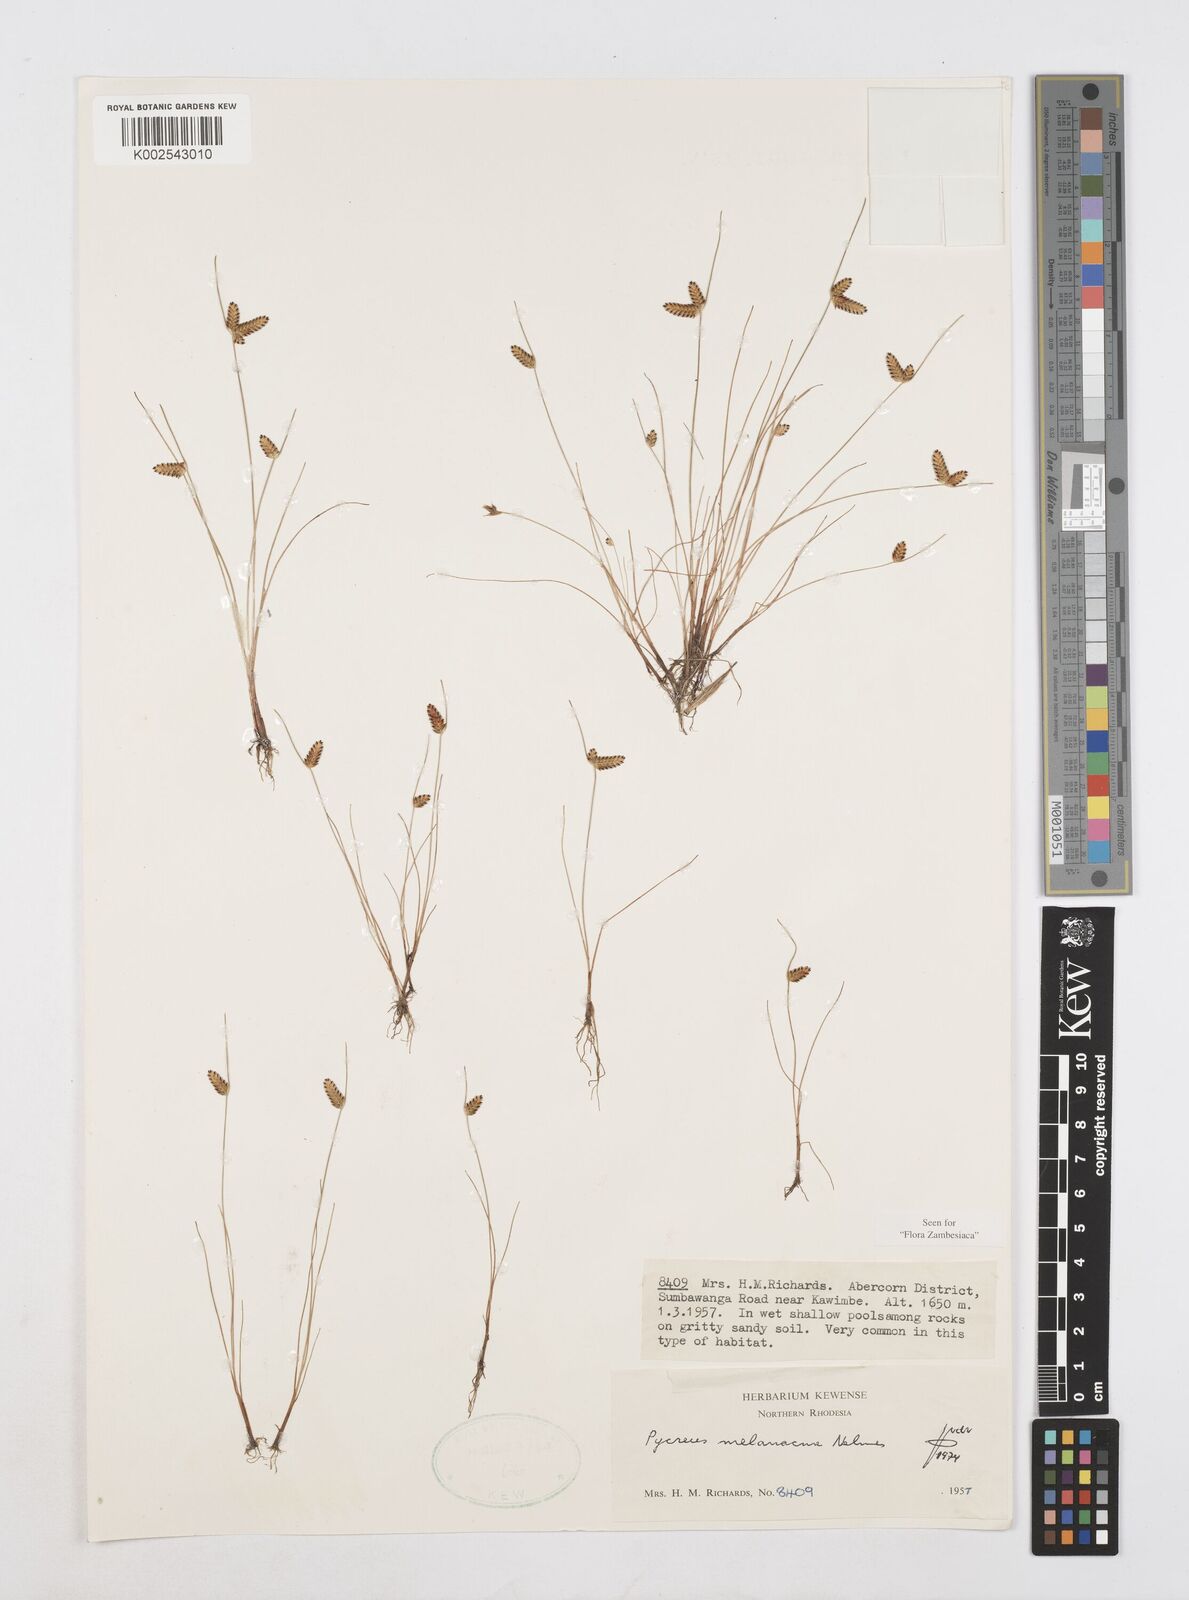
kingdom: Plantae
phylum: Tracheophyta
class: Liliopsida
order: Poales
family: Cyperaceae
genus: Cyperus
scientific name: Cyperus melanacme
